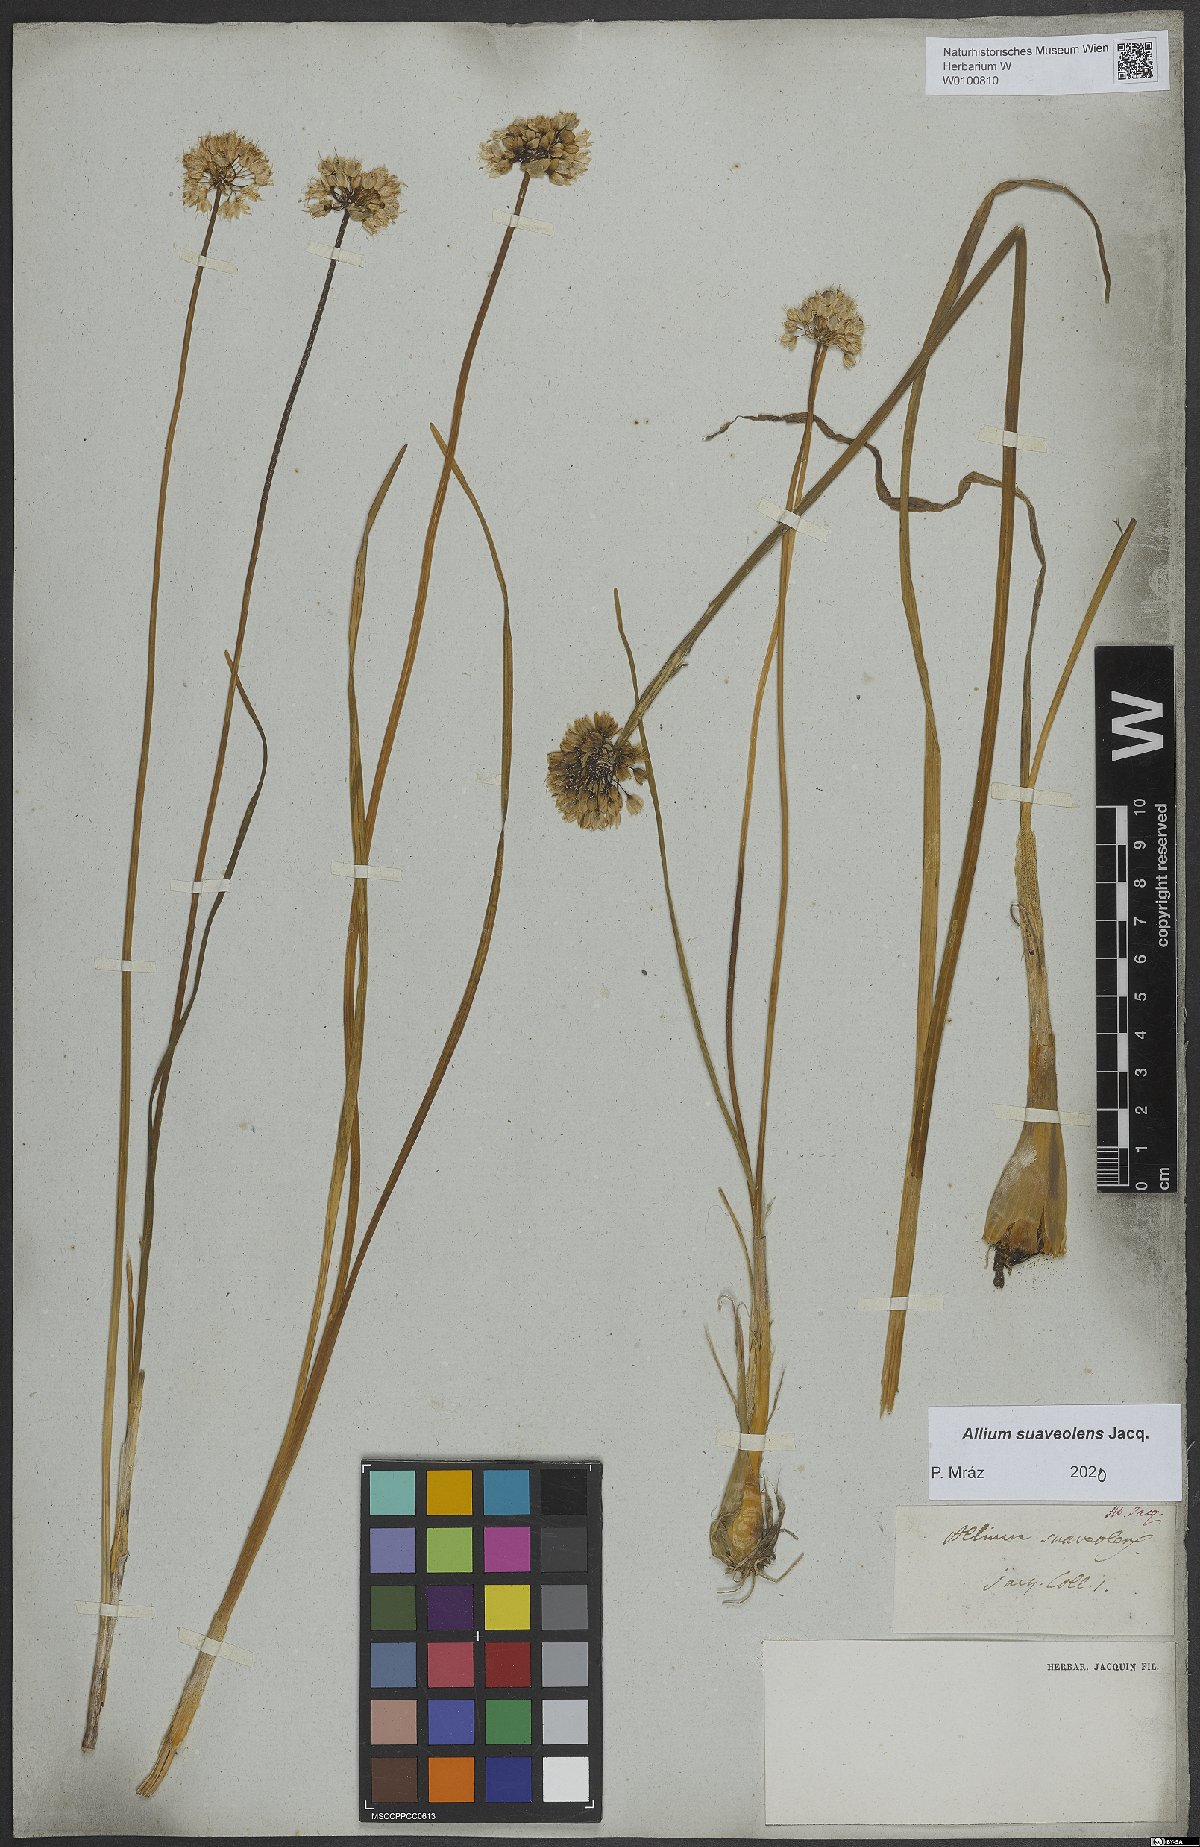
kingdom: Plantae
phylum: Tracheophyta
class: Liliopsida
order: Asparagales
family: Amaryllidaceae
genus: Allium
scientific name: Allium suaveolens
